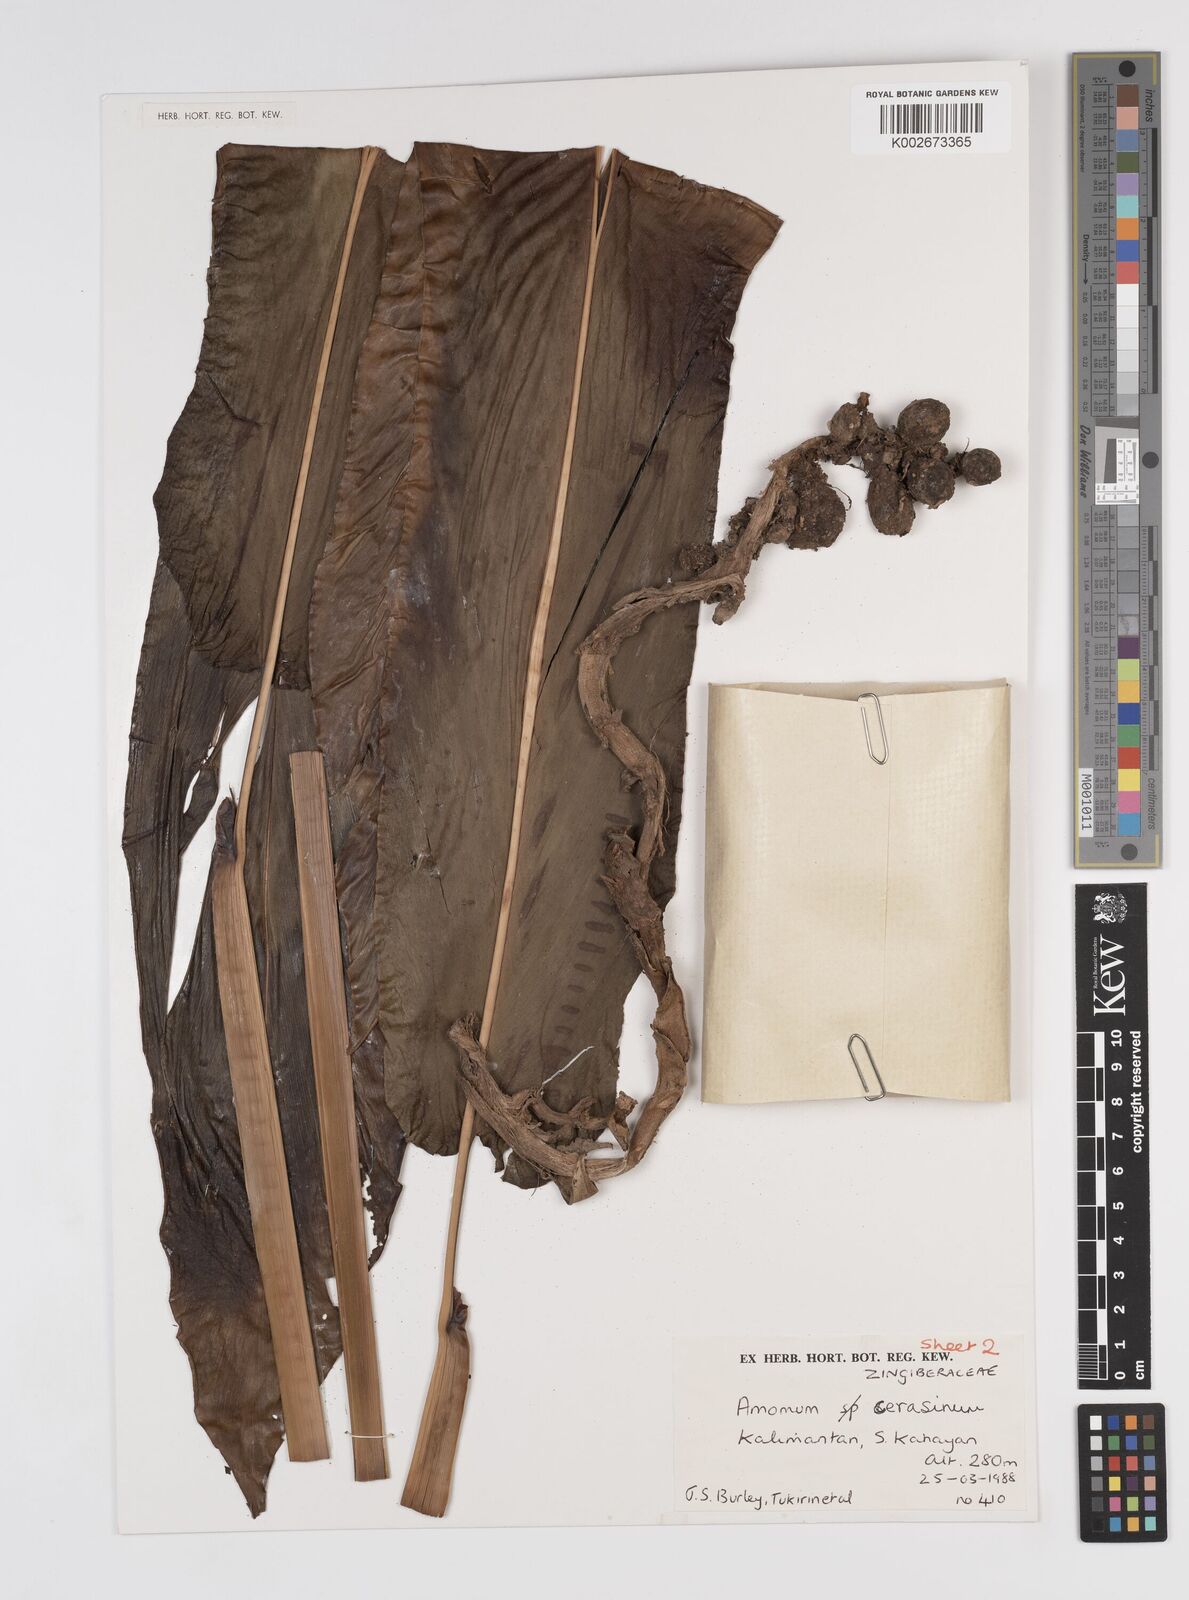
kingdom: Plantae
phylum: Tracheophyta
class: Liliopsida
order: Zingiberales
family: Zingiberaceae
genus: Meistera
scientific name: Meistera cerasina
